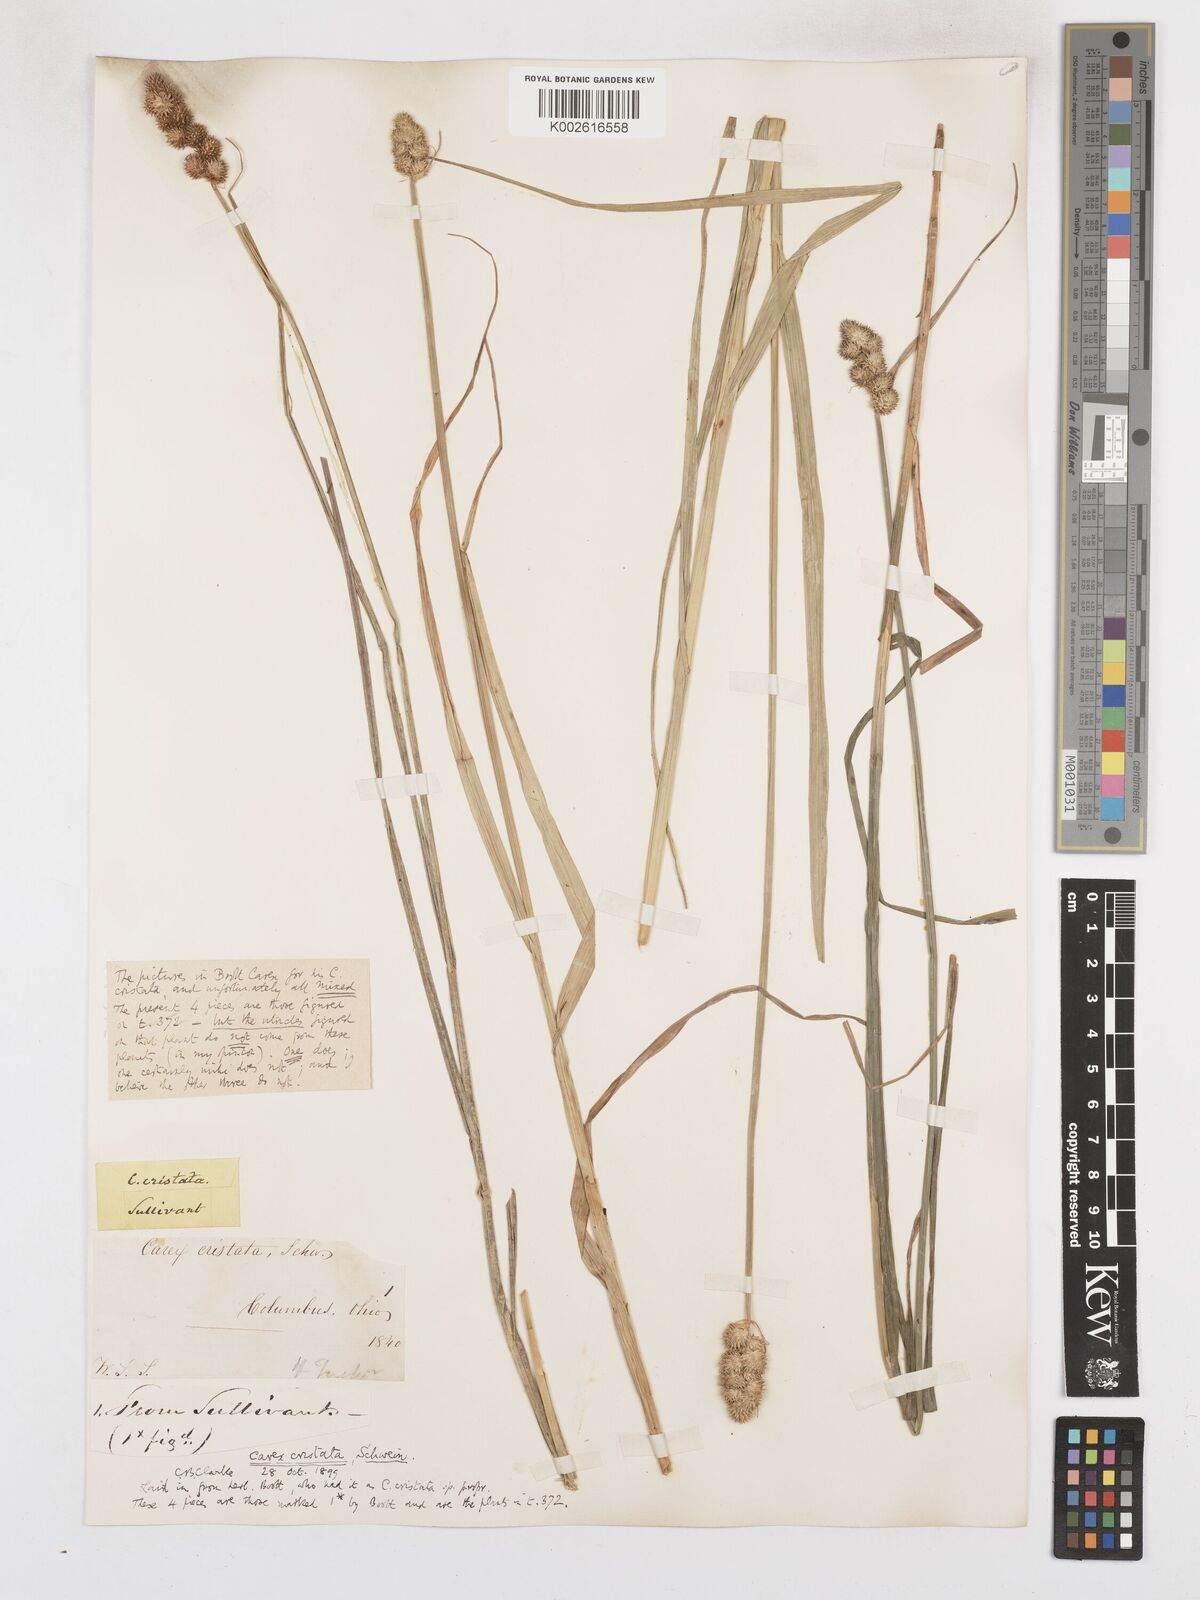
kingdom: Plantae
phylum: Tracheophyta
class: Liliopsida
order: Poales
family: Cyperaceae
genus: Carex
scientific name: Carex cristatella
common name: Crested oval sedge
